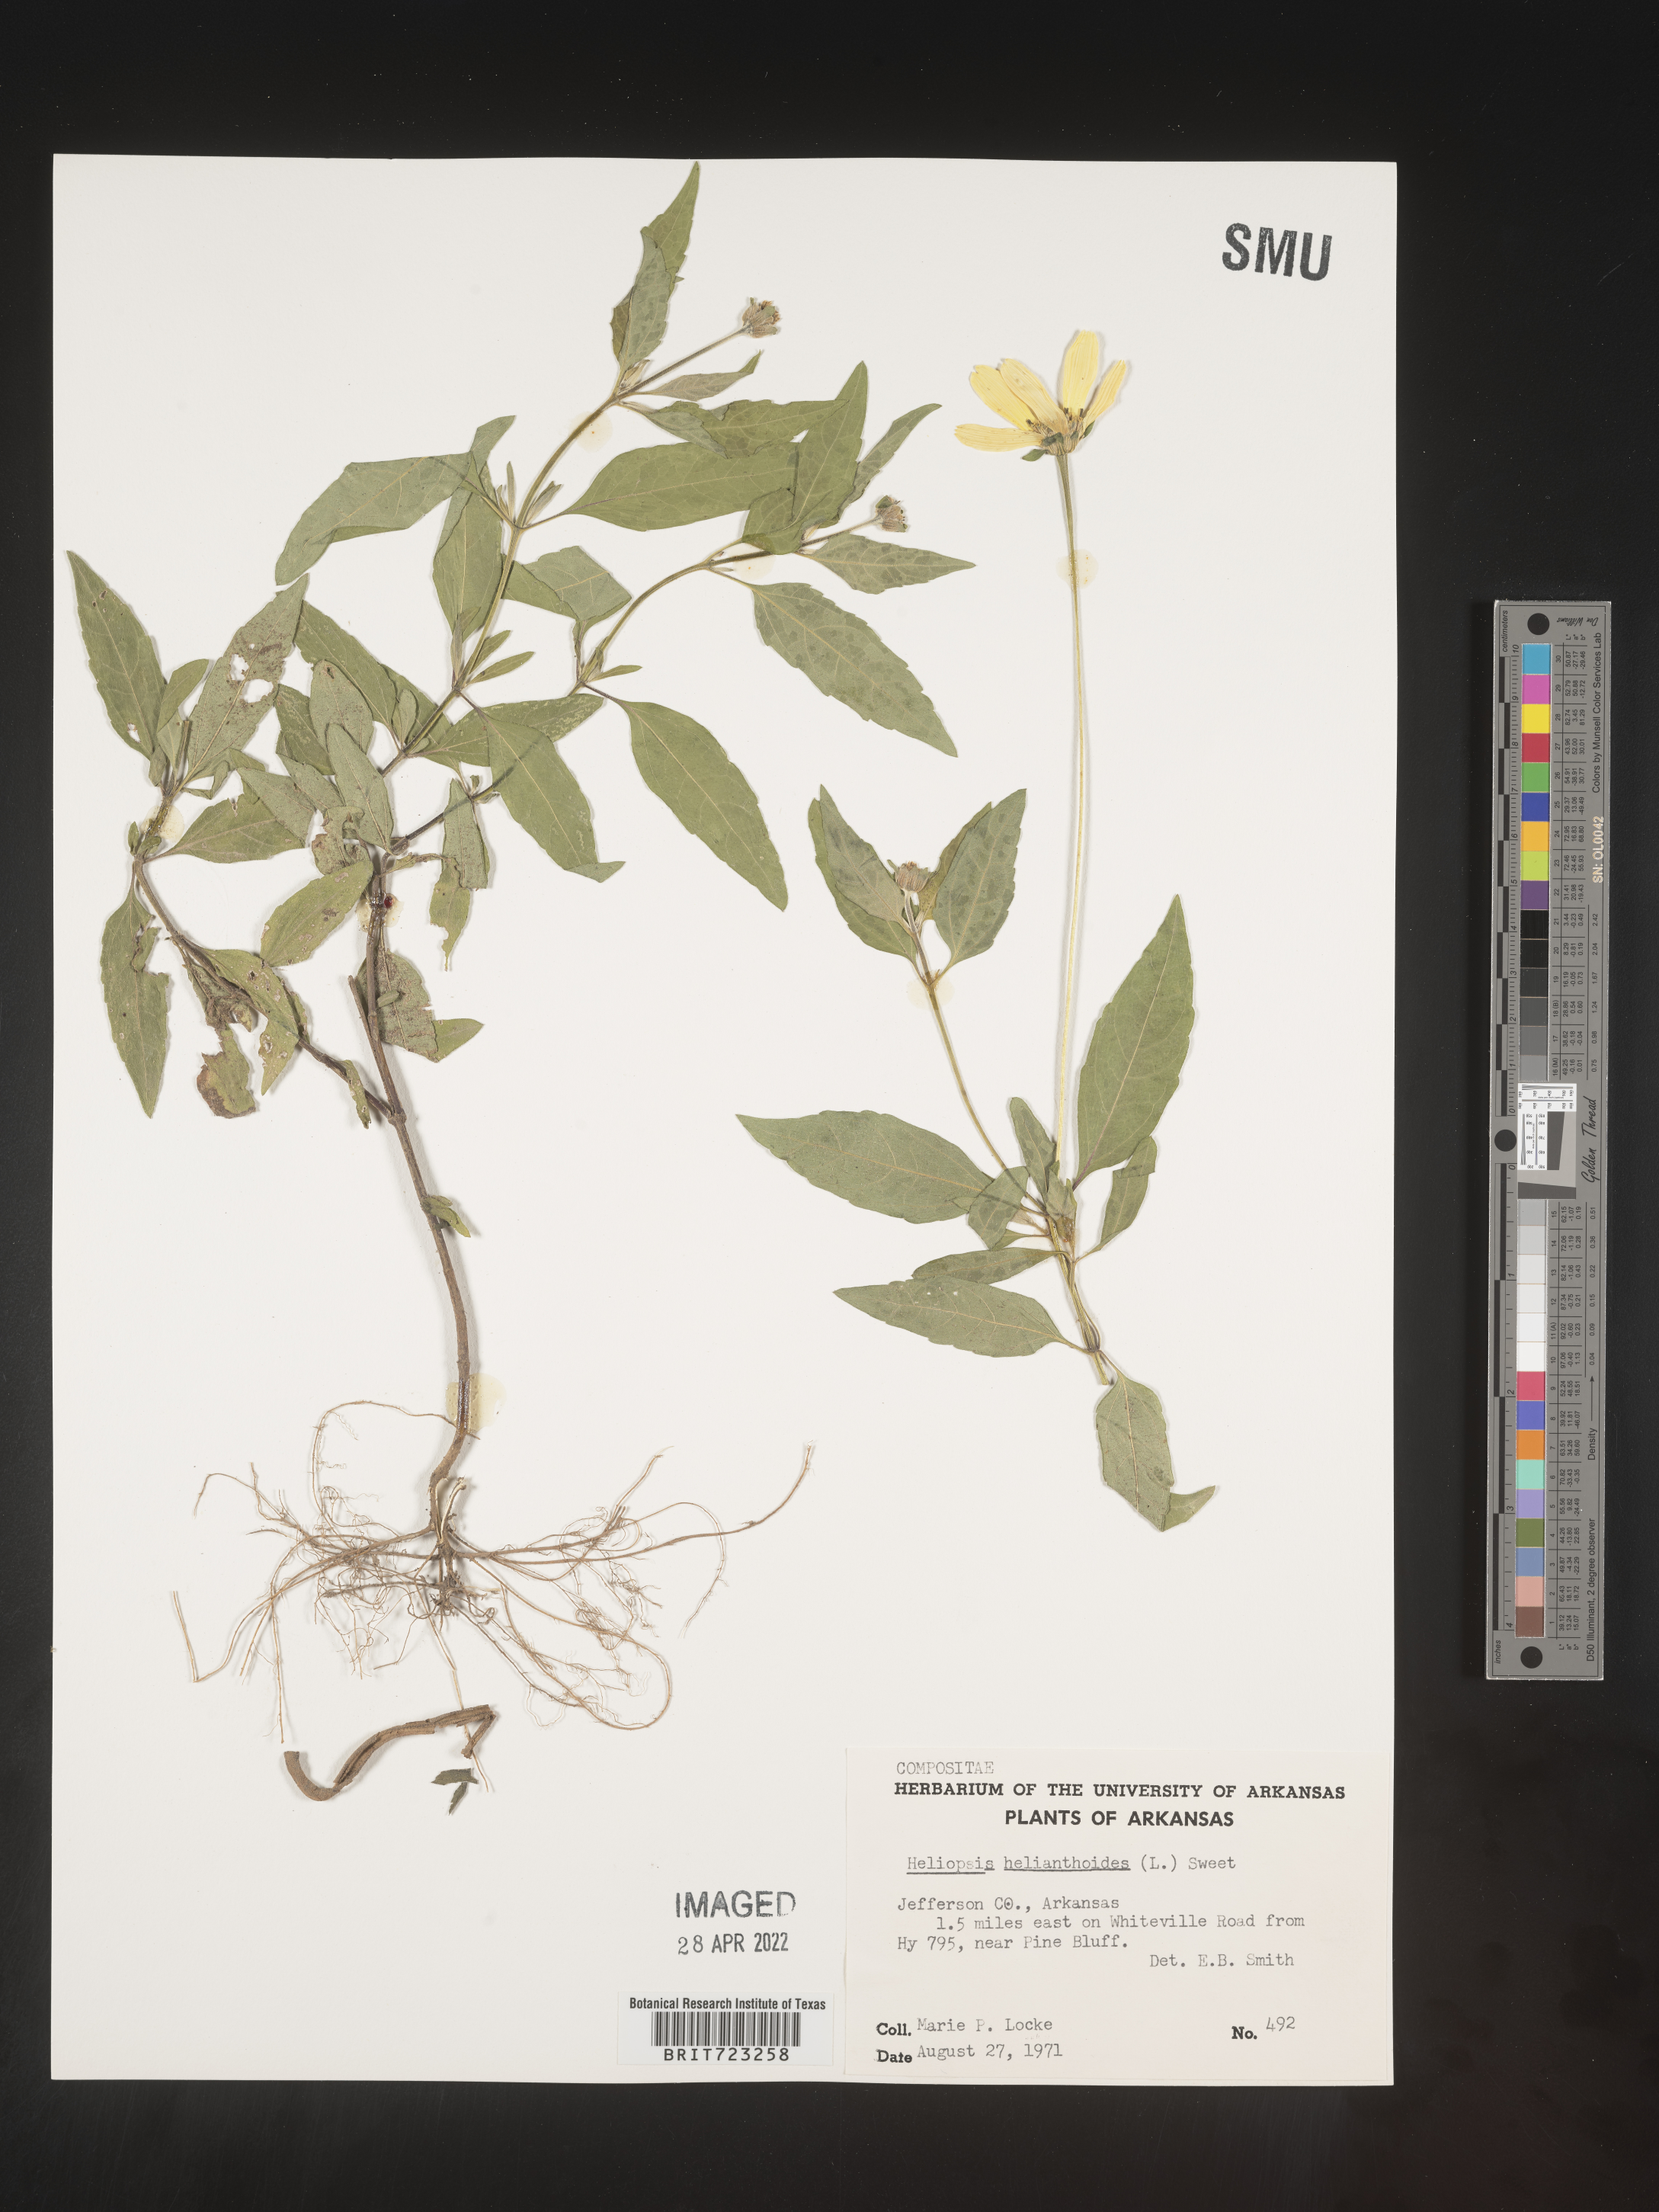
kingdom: Plantae
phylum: Tracheophyta
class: Magnoliopsida
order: Asterales
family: Asteraceae
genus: Heliopsis
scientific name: Heliopsis helianthoides
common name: False sunflower
